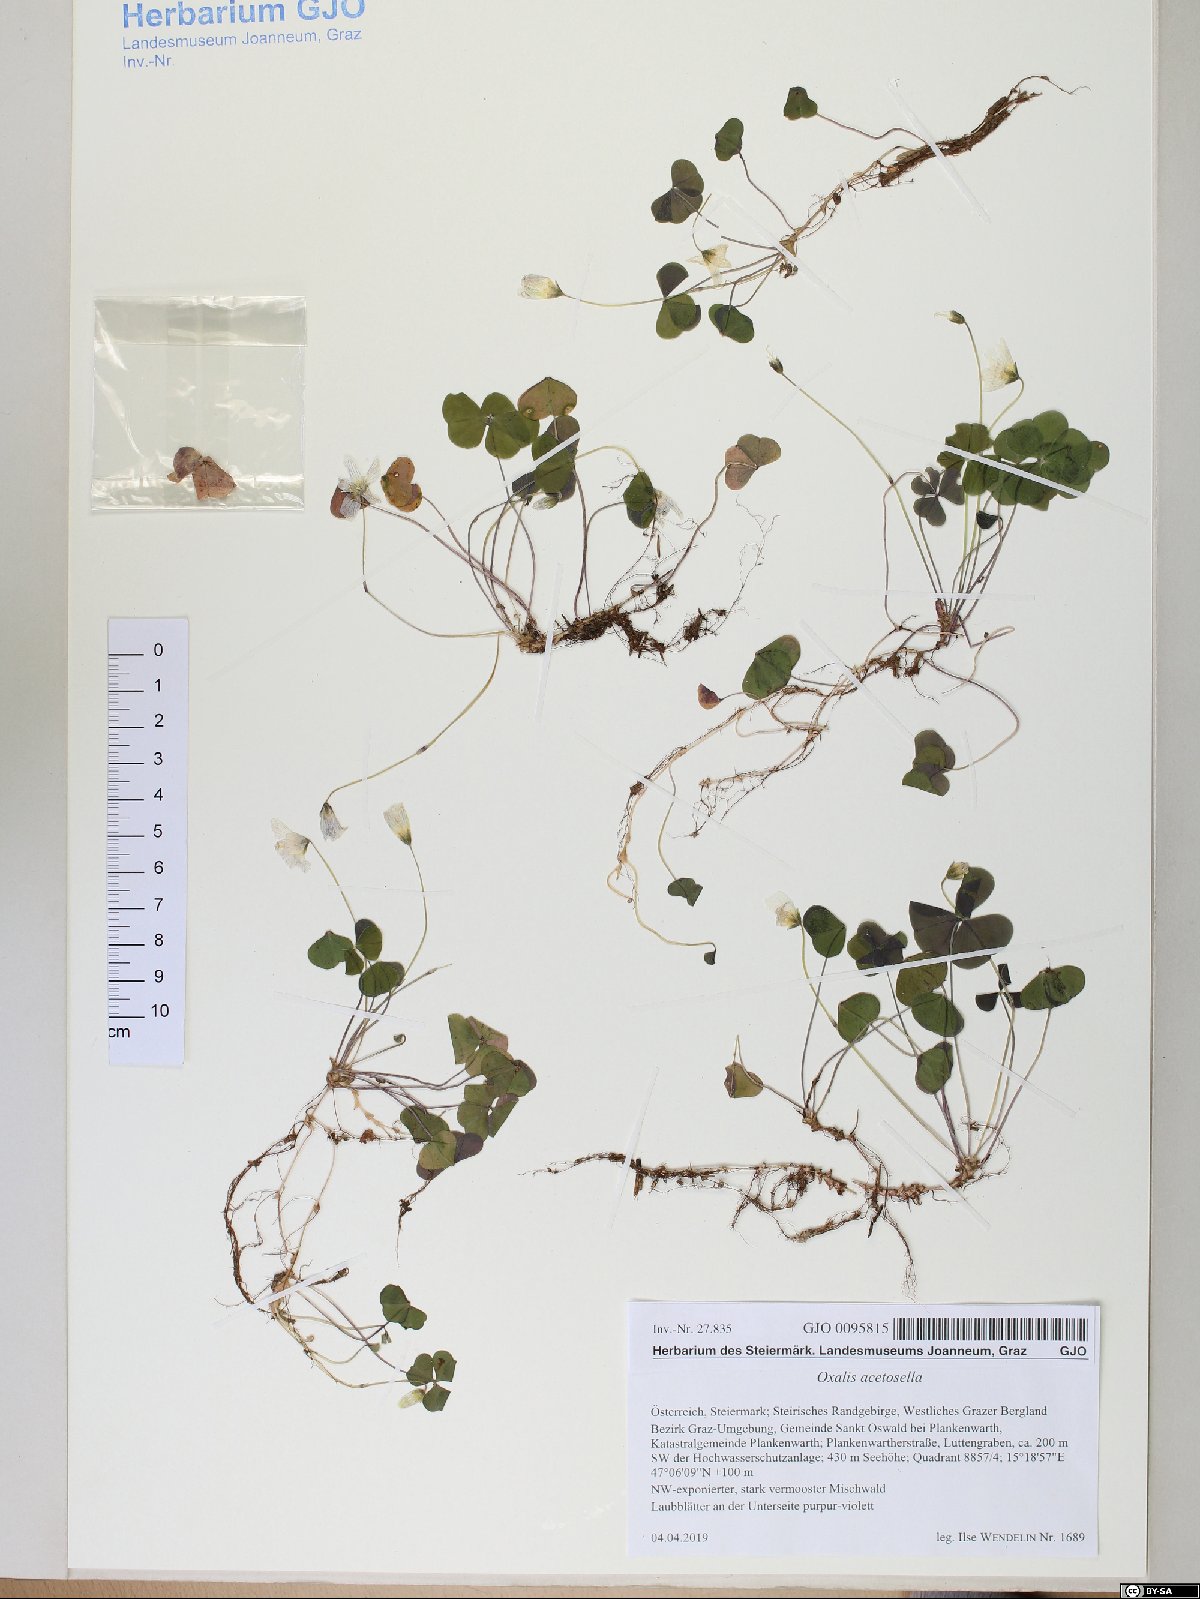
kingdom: Plantae
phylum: Tracheophyta
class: Magnoliopsida
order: Oxalidales
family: Oxalidaceae
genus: Oxalis
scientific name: Oxalis acetosella
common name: Wood-sorrel
